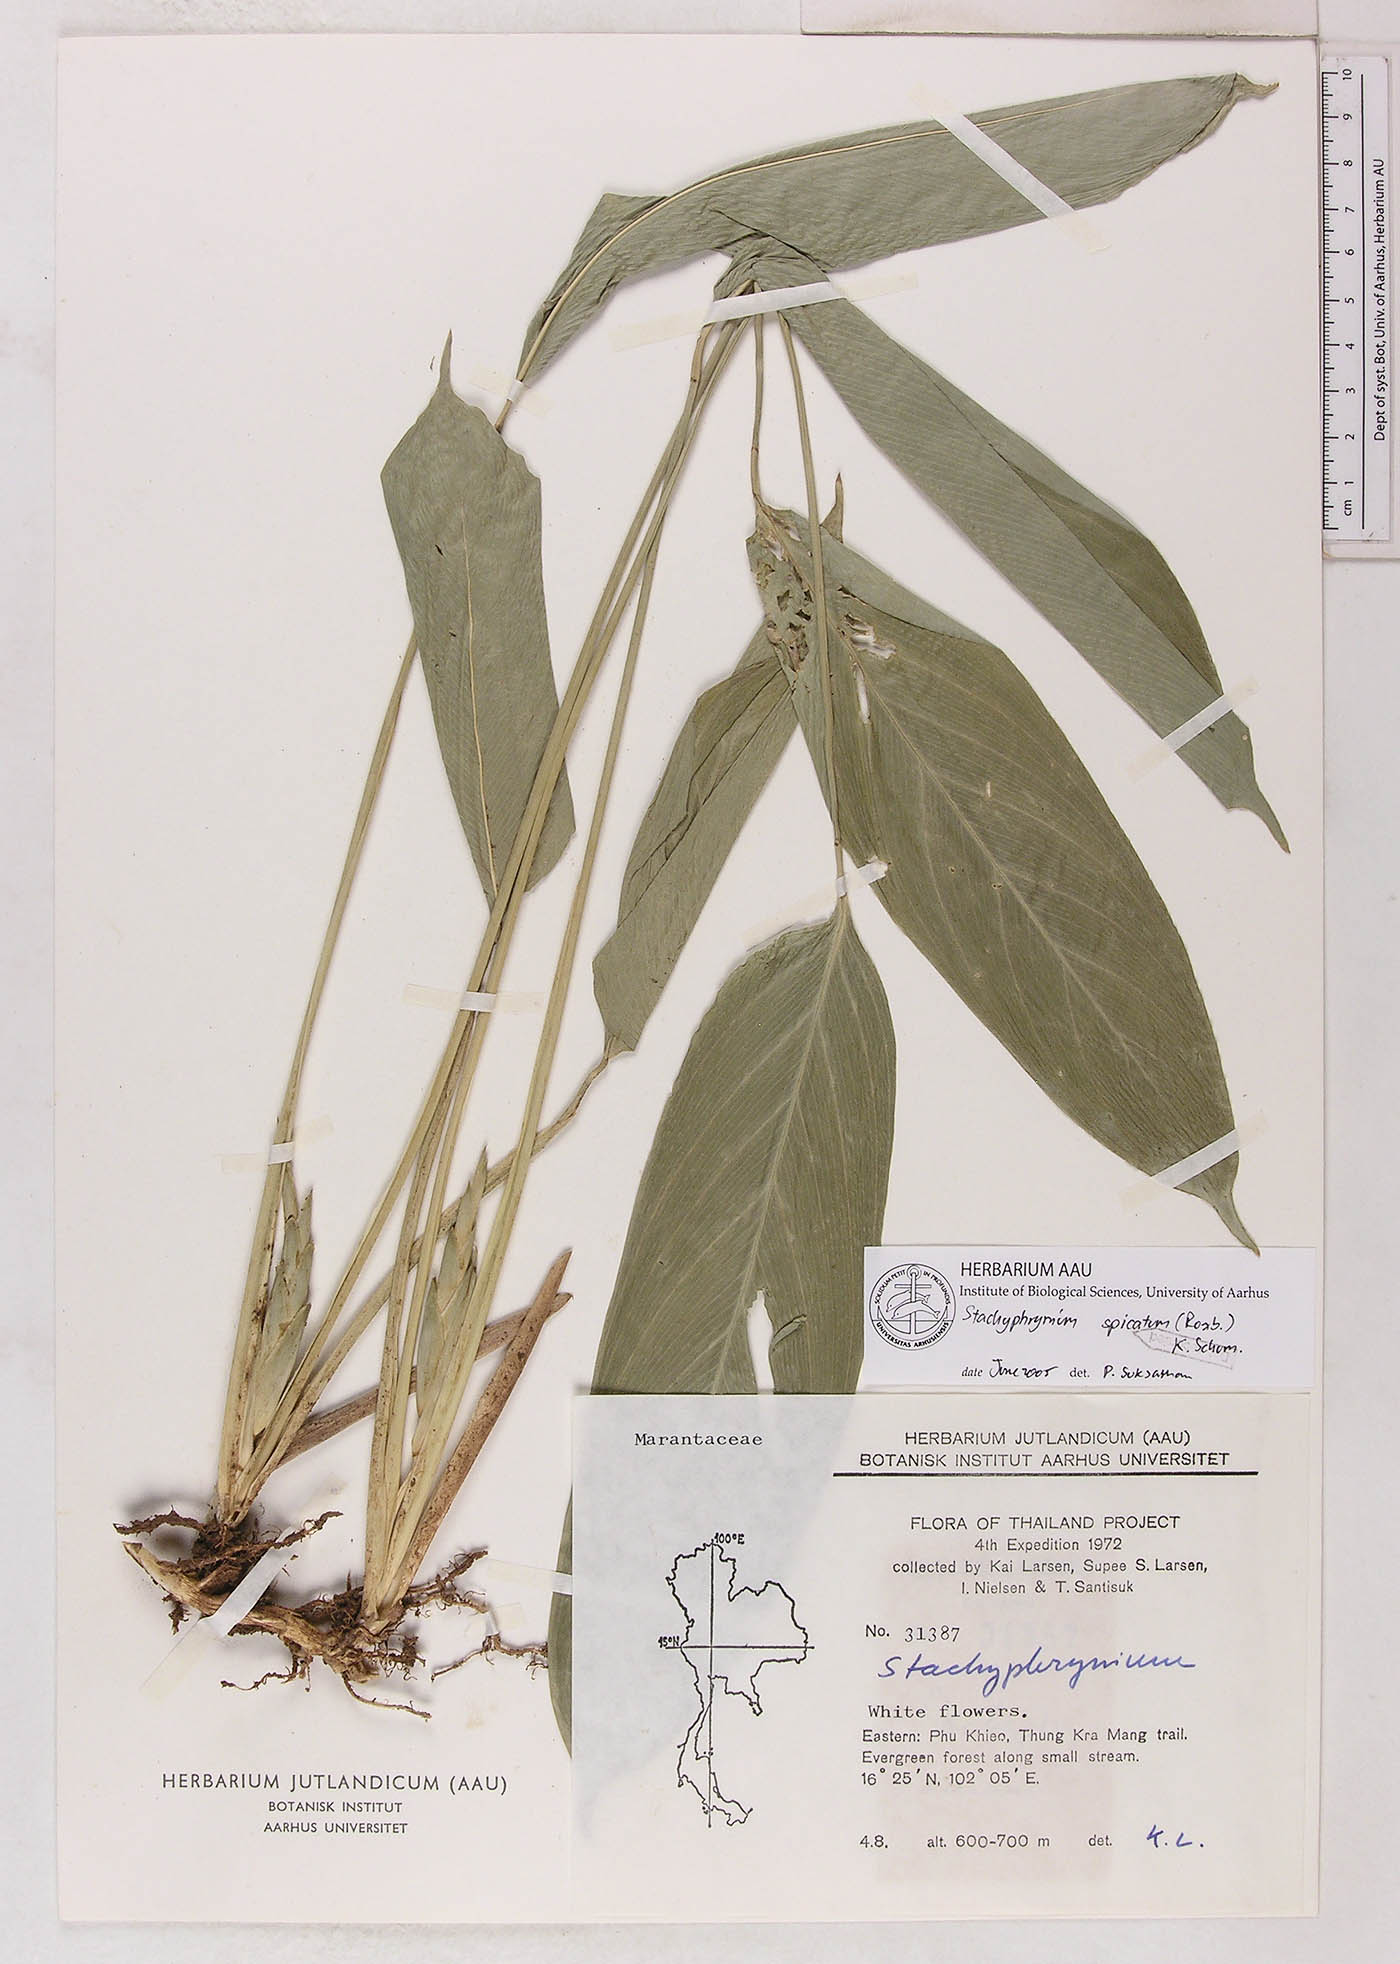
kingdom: Plantae
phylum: Tracheophyta
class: Liliopsida
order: Zingiberales
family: Marantaceae
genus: Stachyphrynium
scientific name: Stachyphrynium spicatum
